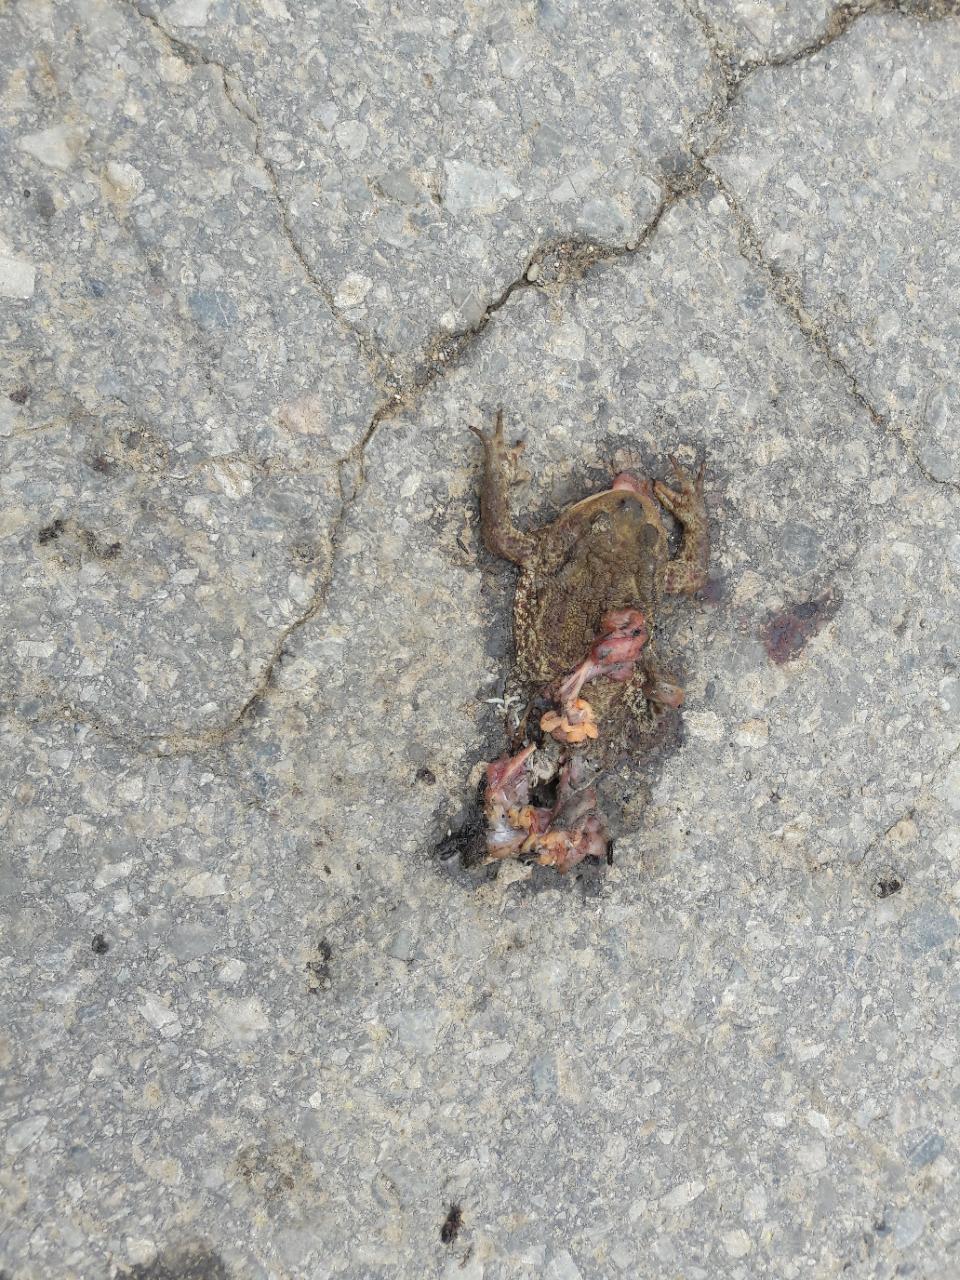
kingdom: Animalia
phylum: Chordata
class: Amphibia
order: Anura
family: Bufonidae
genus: Bufo
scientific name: Bufo bufo
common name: Common toad
